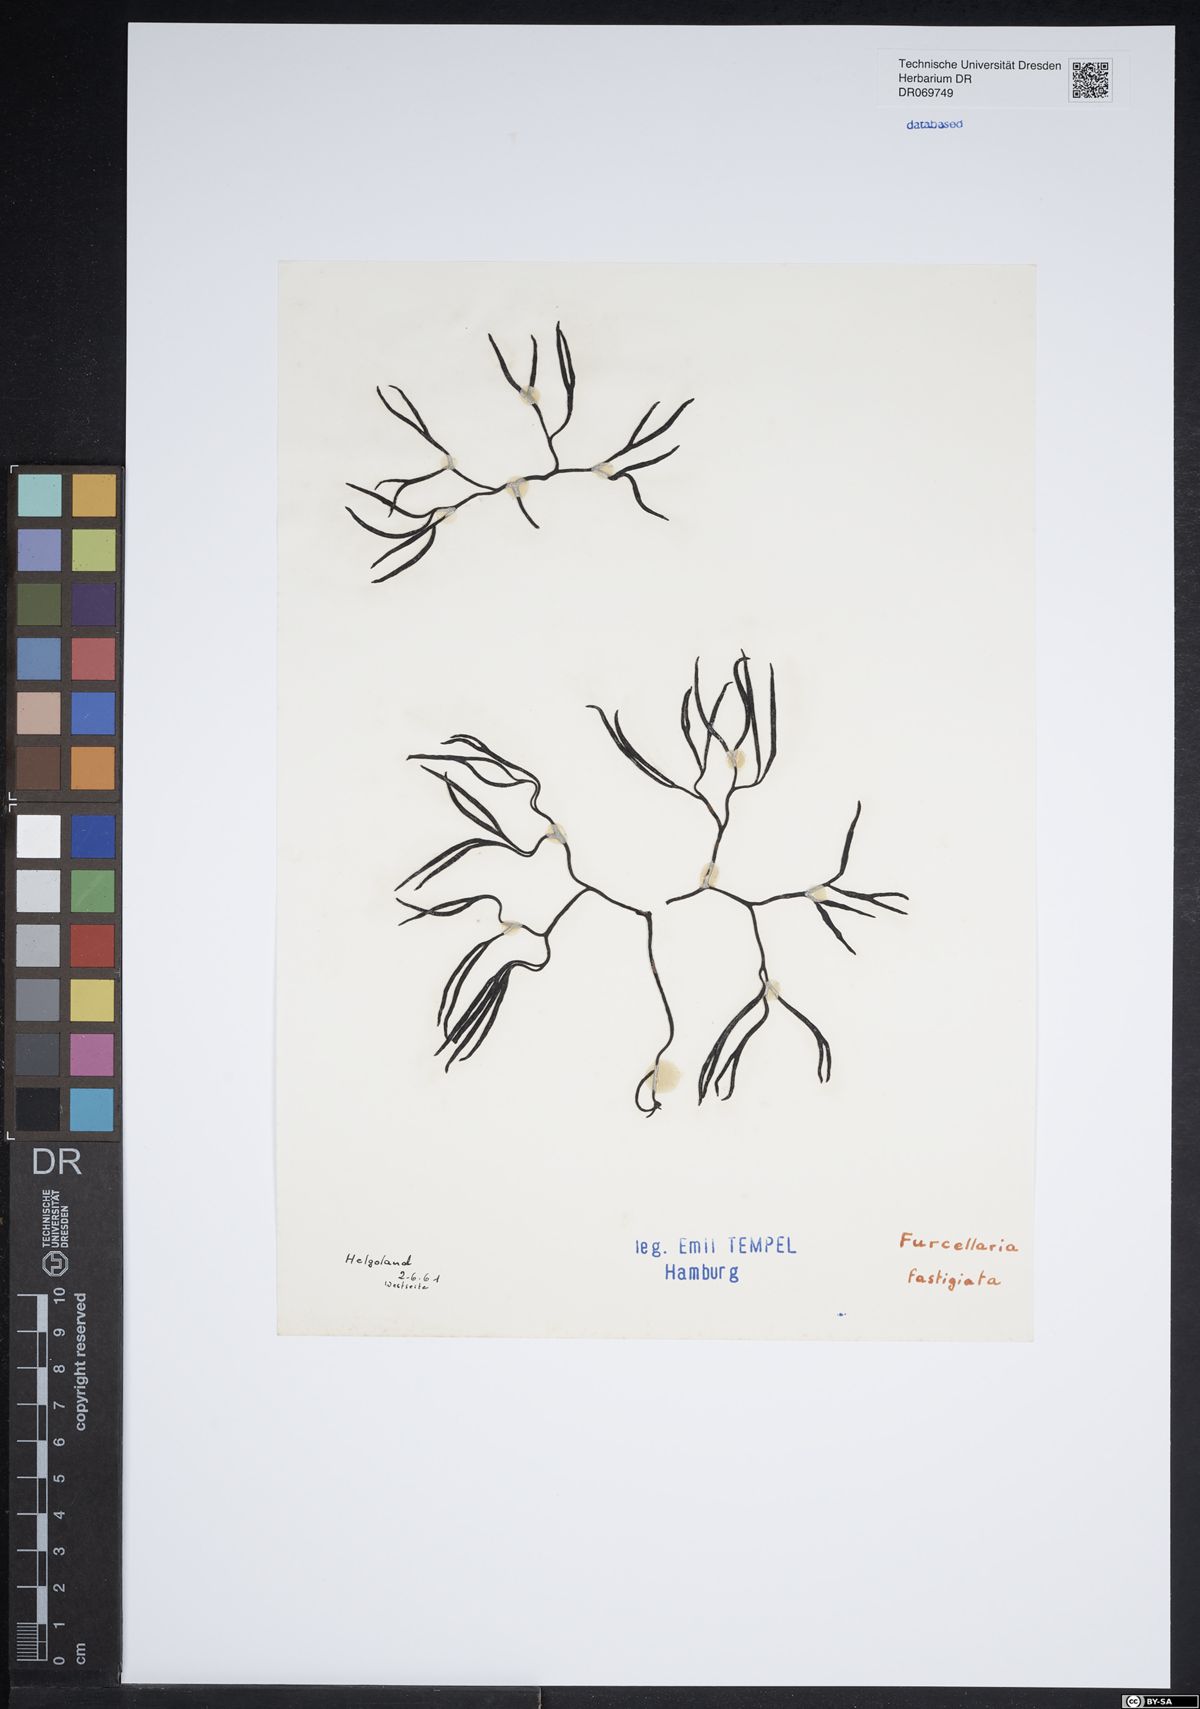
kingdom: Plantae
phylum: Rhodophyta
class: Florideophyceae
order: Gigartinales
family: Furcellariaceae
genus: Furcellaria
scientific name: Furcellaria lumbricalis
